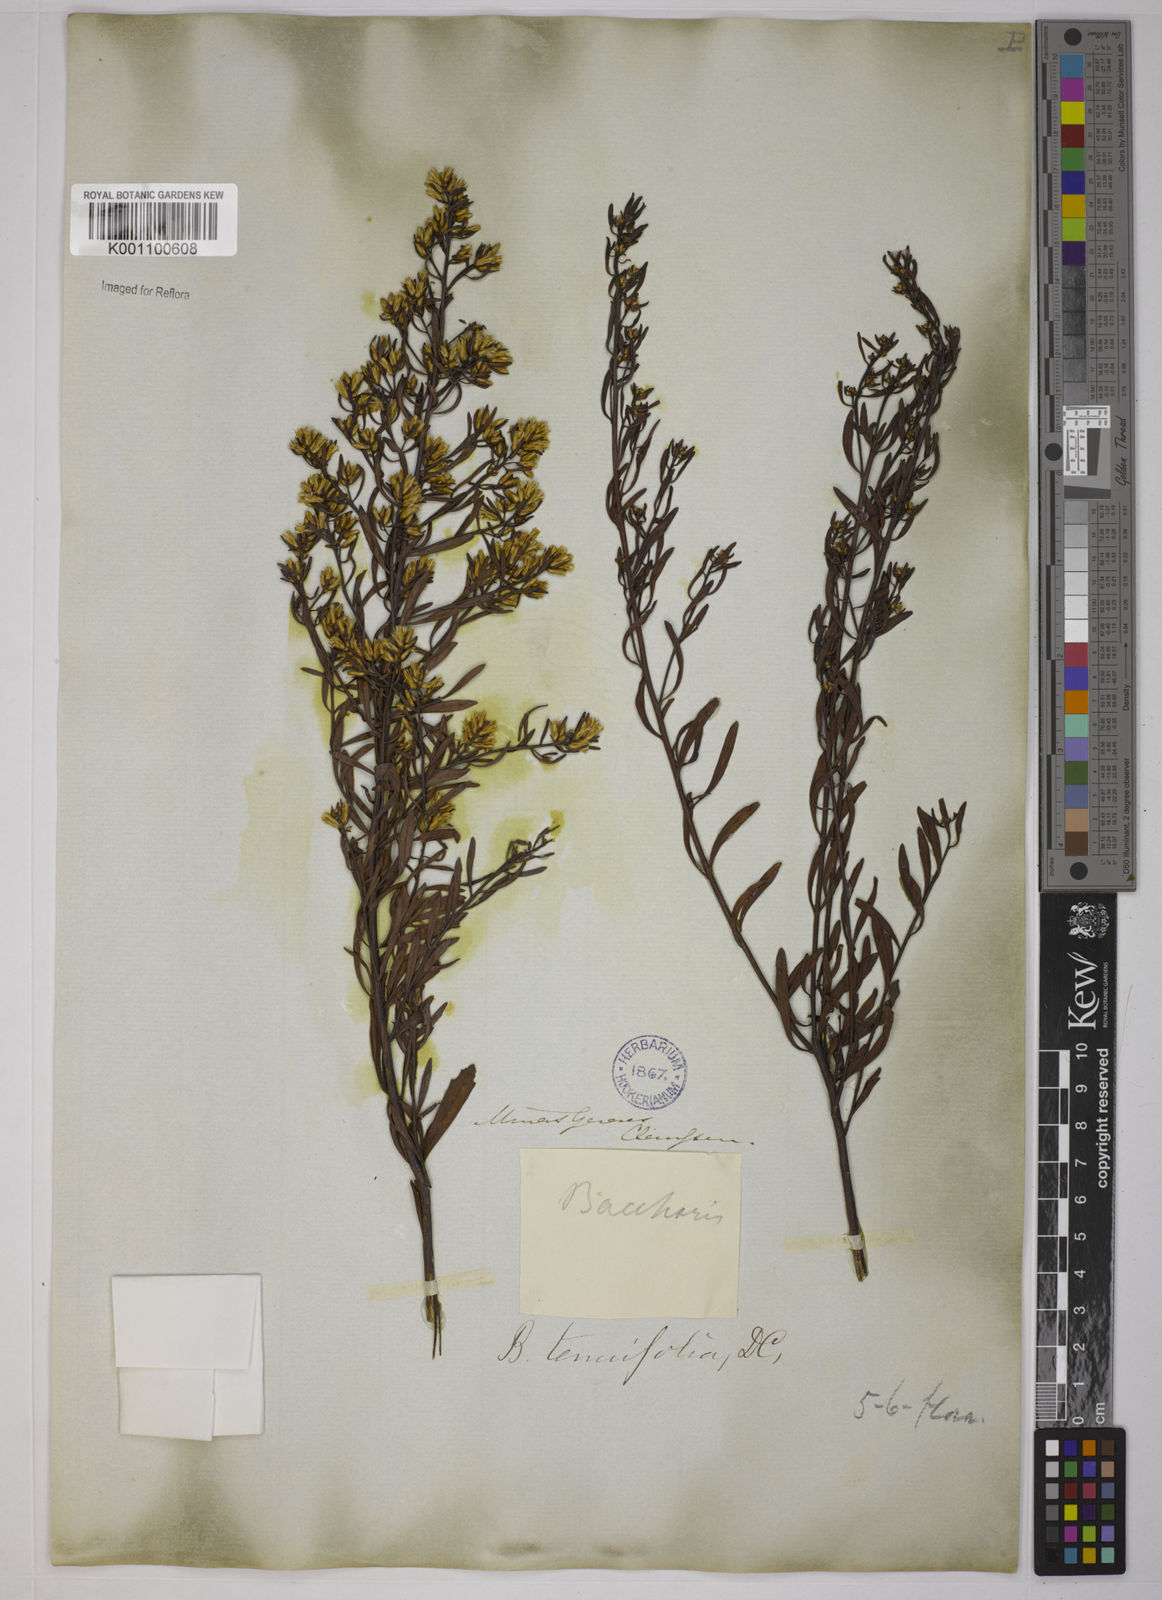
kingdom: Plantae
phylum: Tracheophyta
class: Magnoliopsida
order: Asterales
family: Asteraceae
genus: Baccharis
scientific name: Baccharis rufescens
